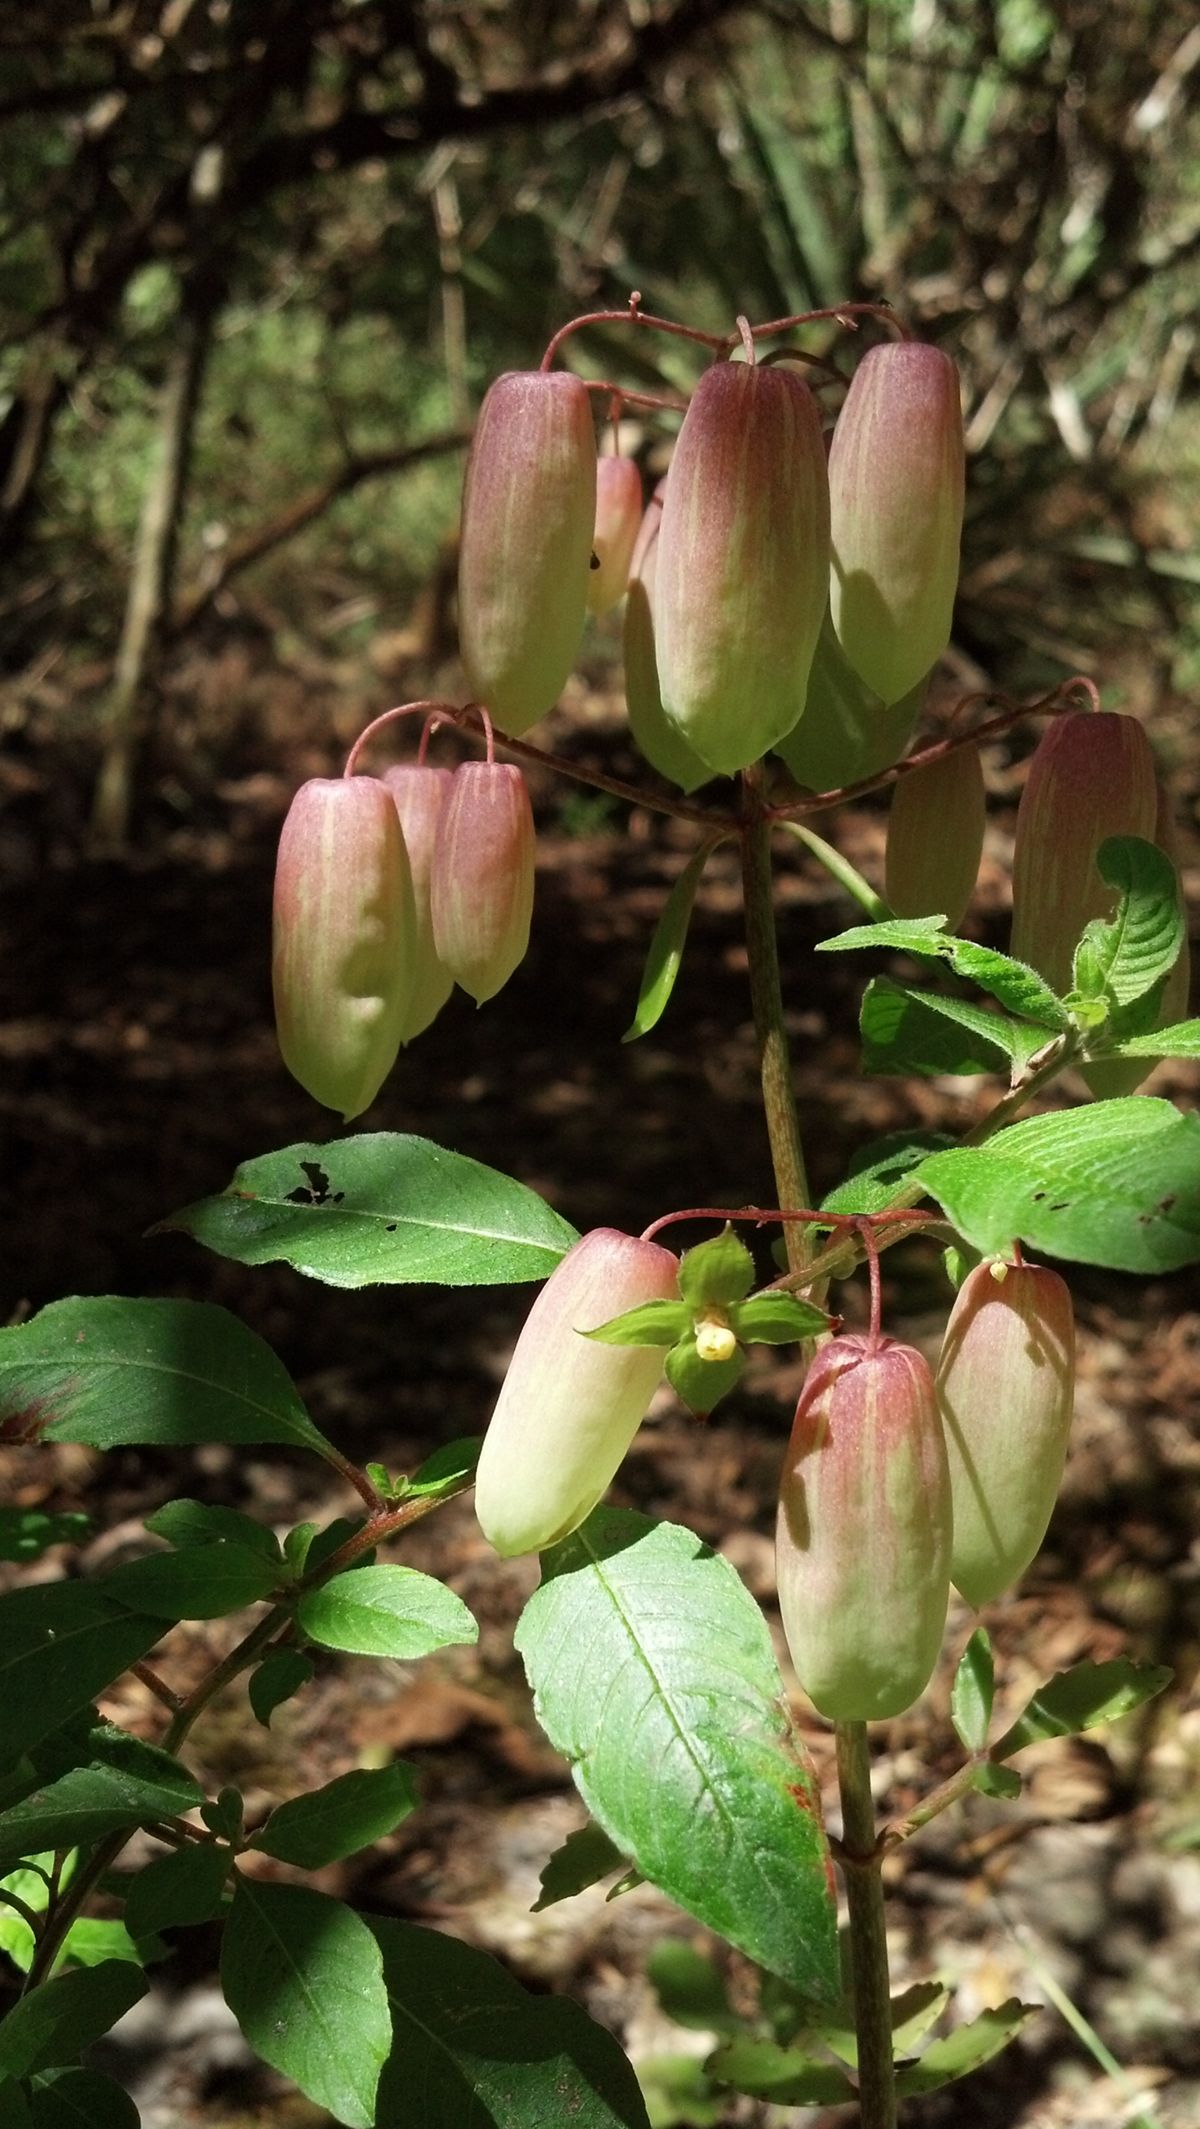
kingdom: Plantae
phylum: Tracheophyta
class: Magnoliopsida
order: Saxifragales
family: Crassulaceae
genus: Kalanchoe
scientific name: Kalanchoe pinnata
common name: Cathedral bells
